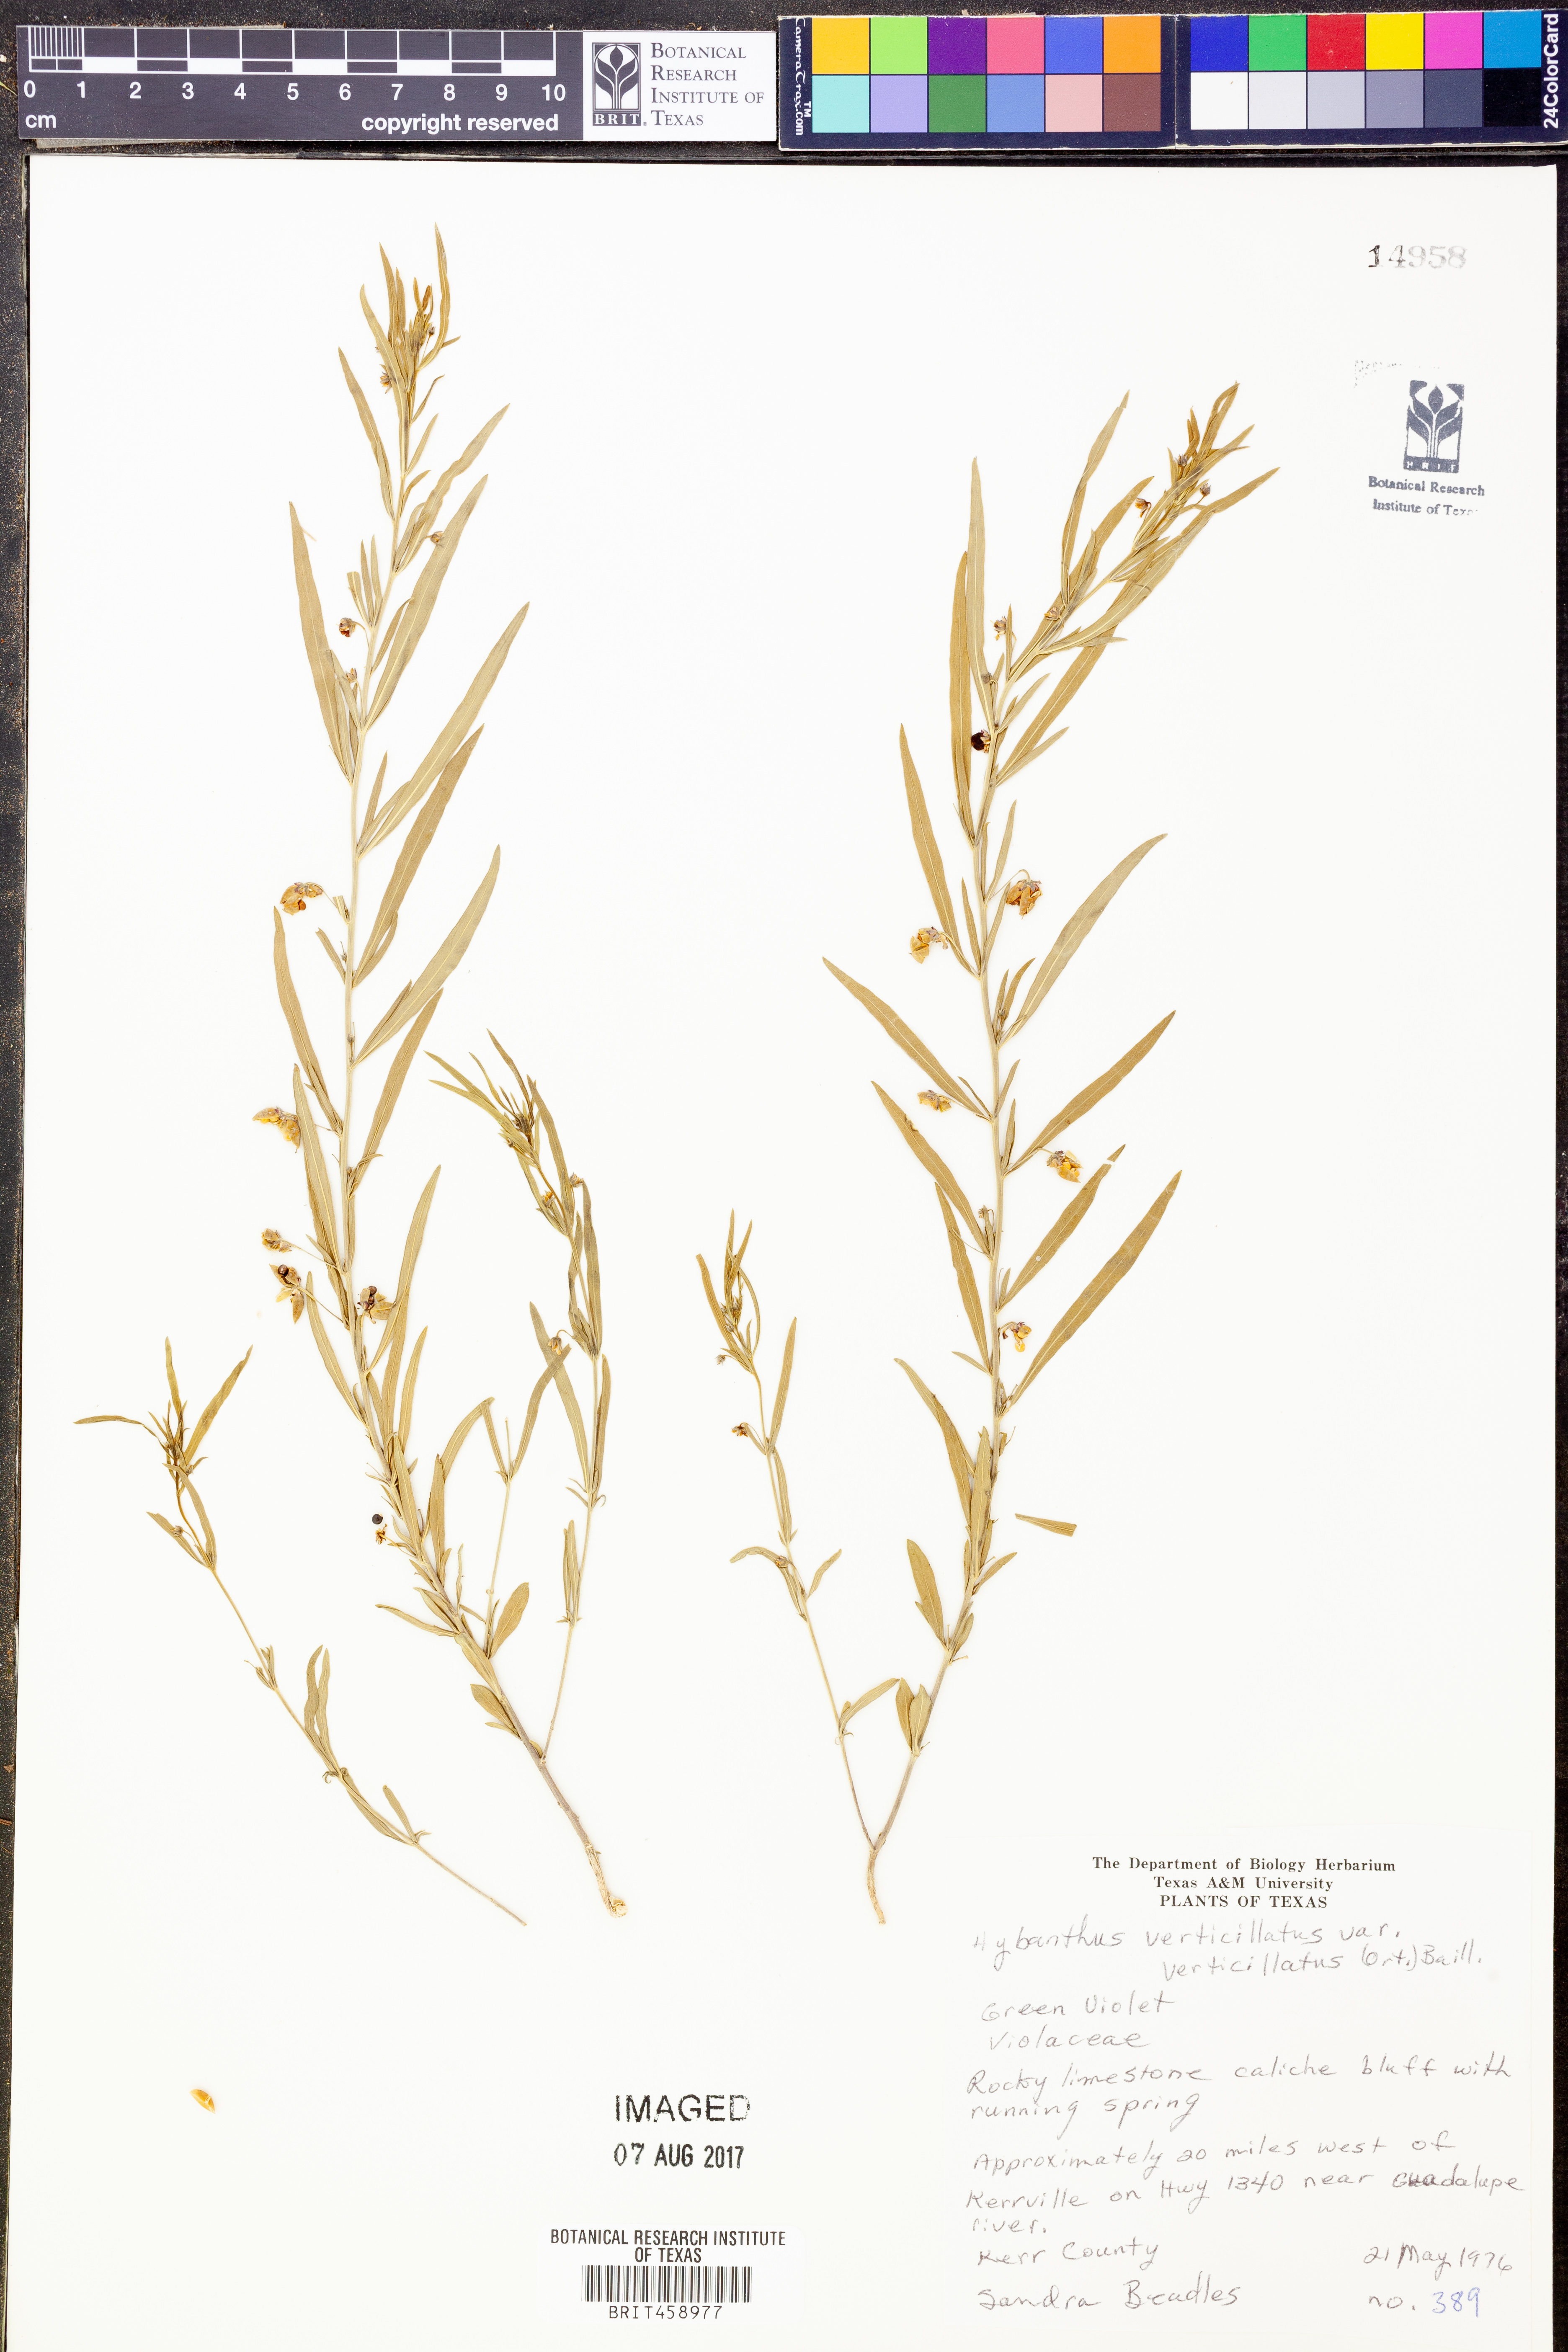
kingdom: Plantae
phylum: Tracheophyta
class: Magnoliopsida
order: Malpighiales
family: Violaceae
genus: Pombalia
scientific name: Pombalia verticillata
